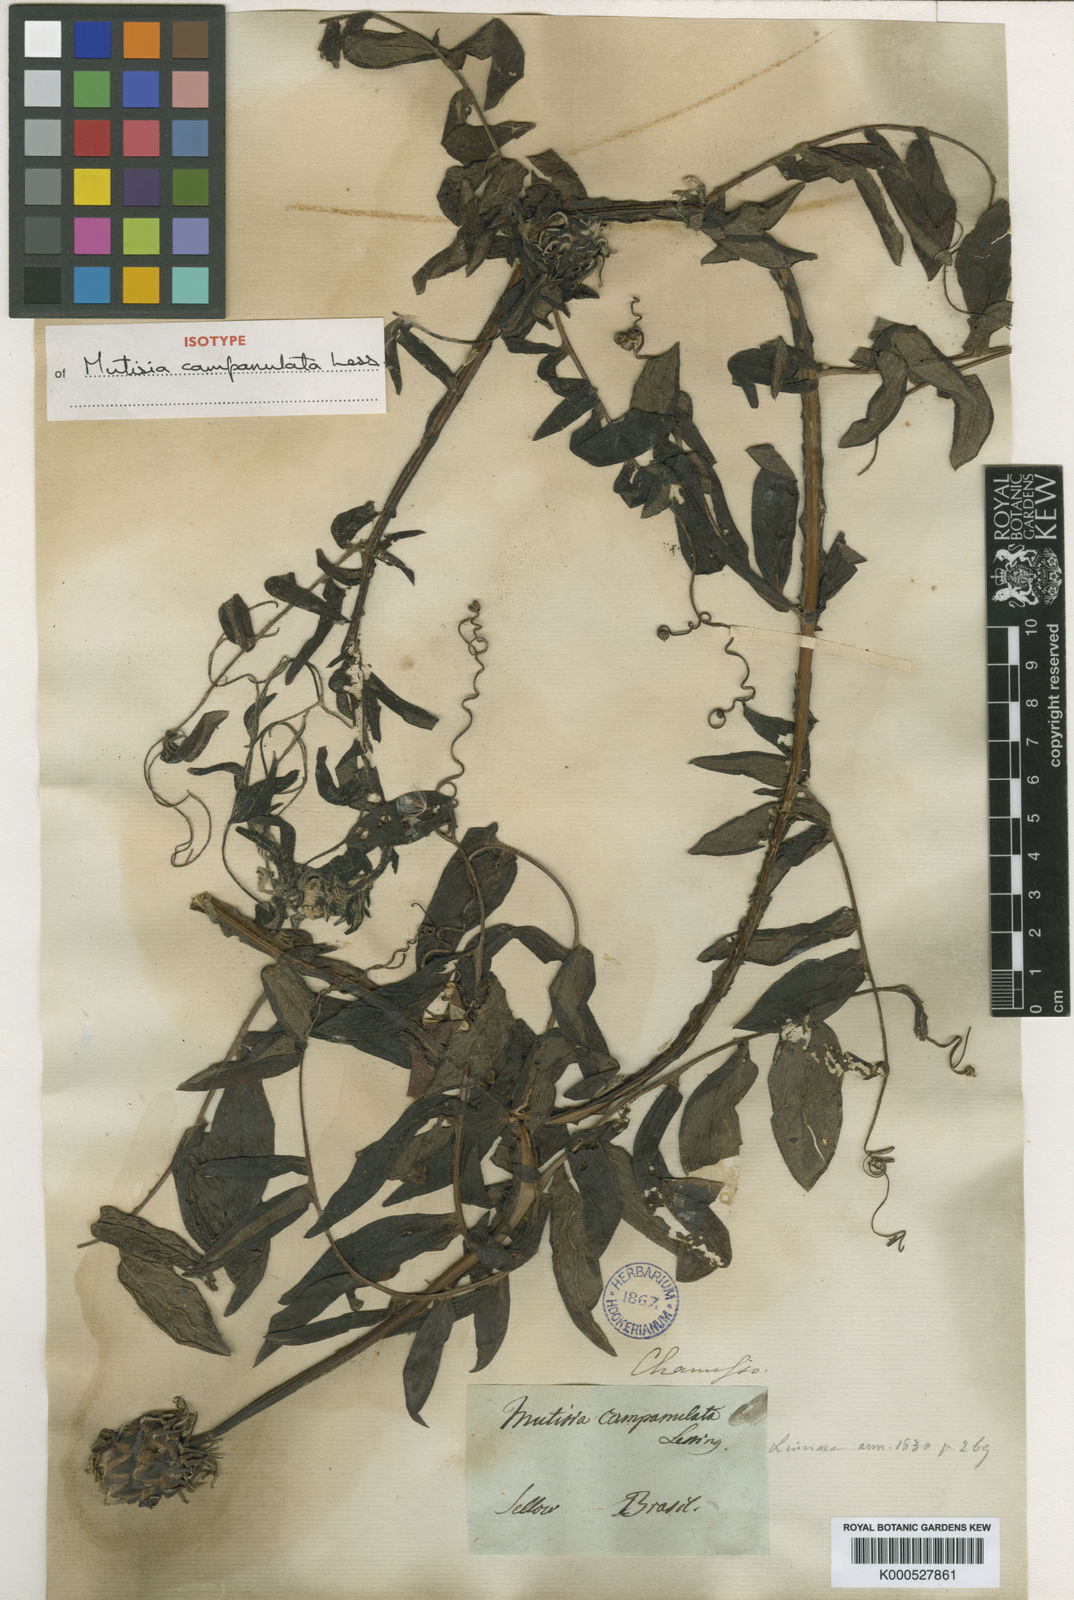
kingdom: Plantae
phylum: Tracheophyta
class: Magnoliopsida
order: Asterales
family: Asteraceae
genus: Mutisia
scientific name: Mutisia campanulata
